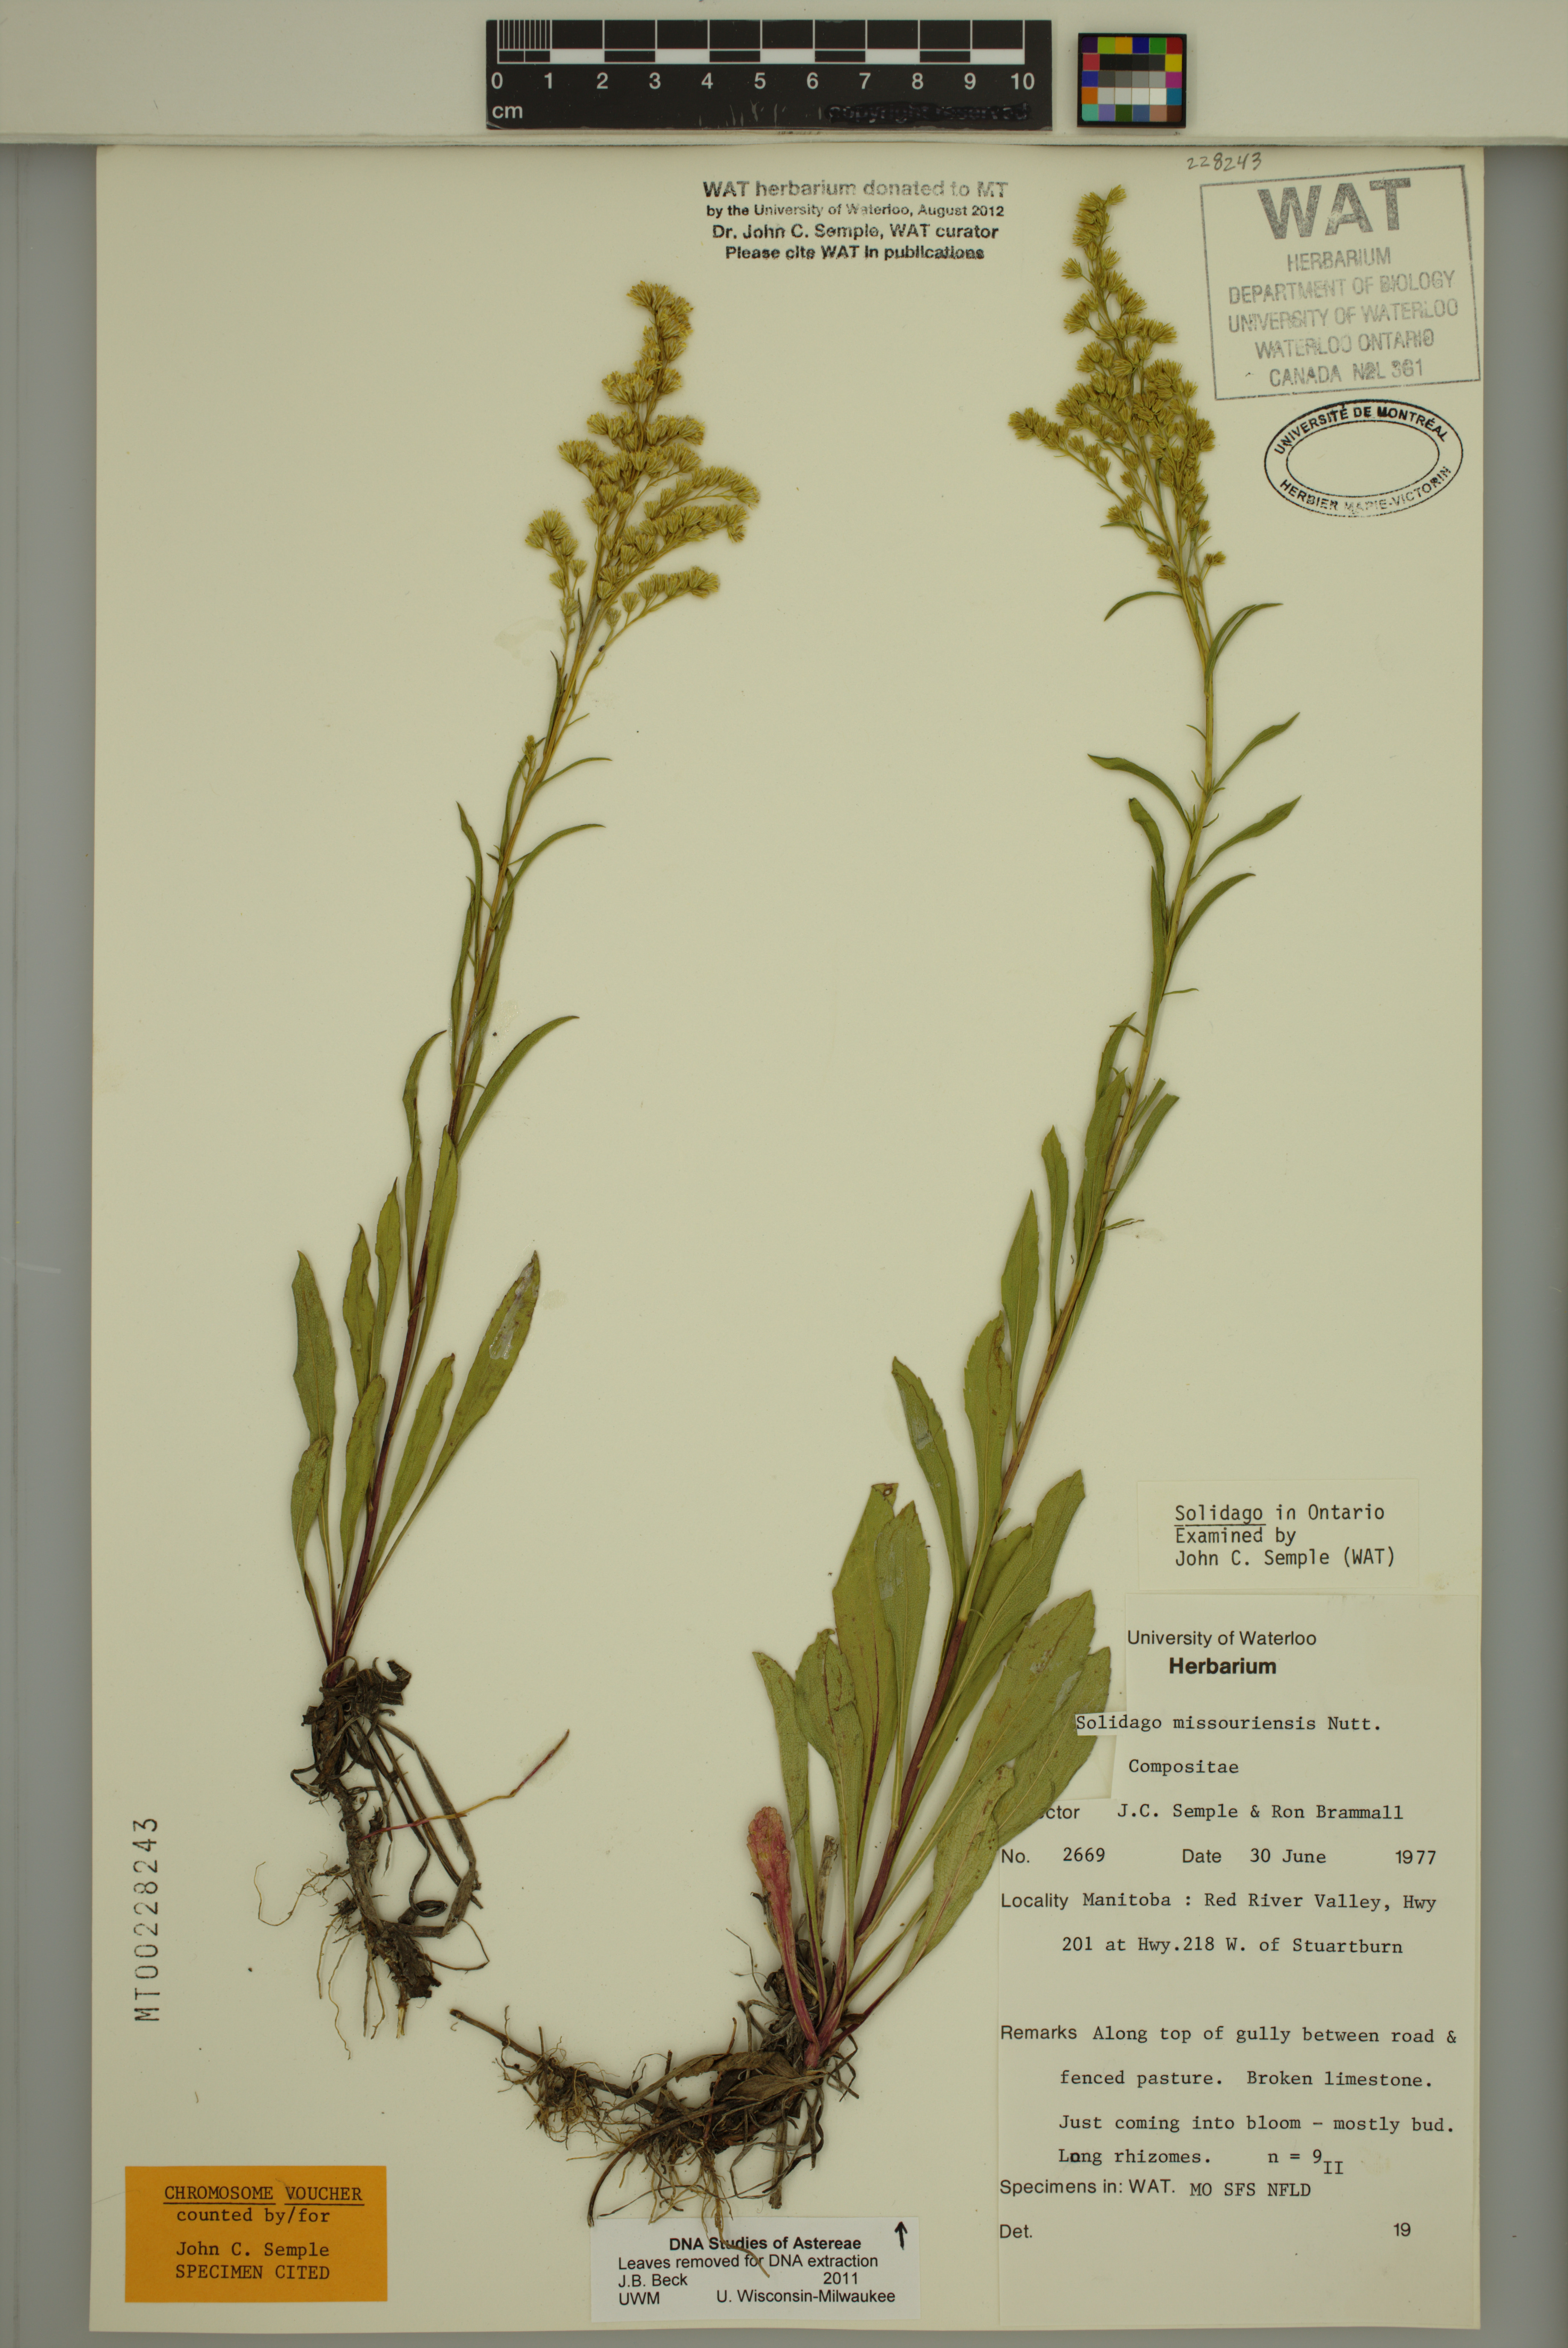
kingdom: Plantae
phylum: Tracheophyta
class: Magnoliopsida
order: Asterales
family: Asteraceae
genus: Solidago
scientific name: Solidago missouriensis
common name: Prairie goldenrod
